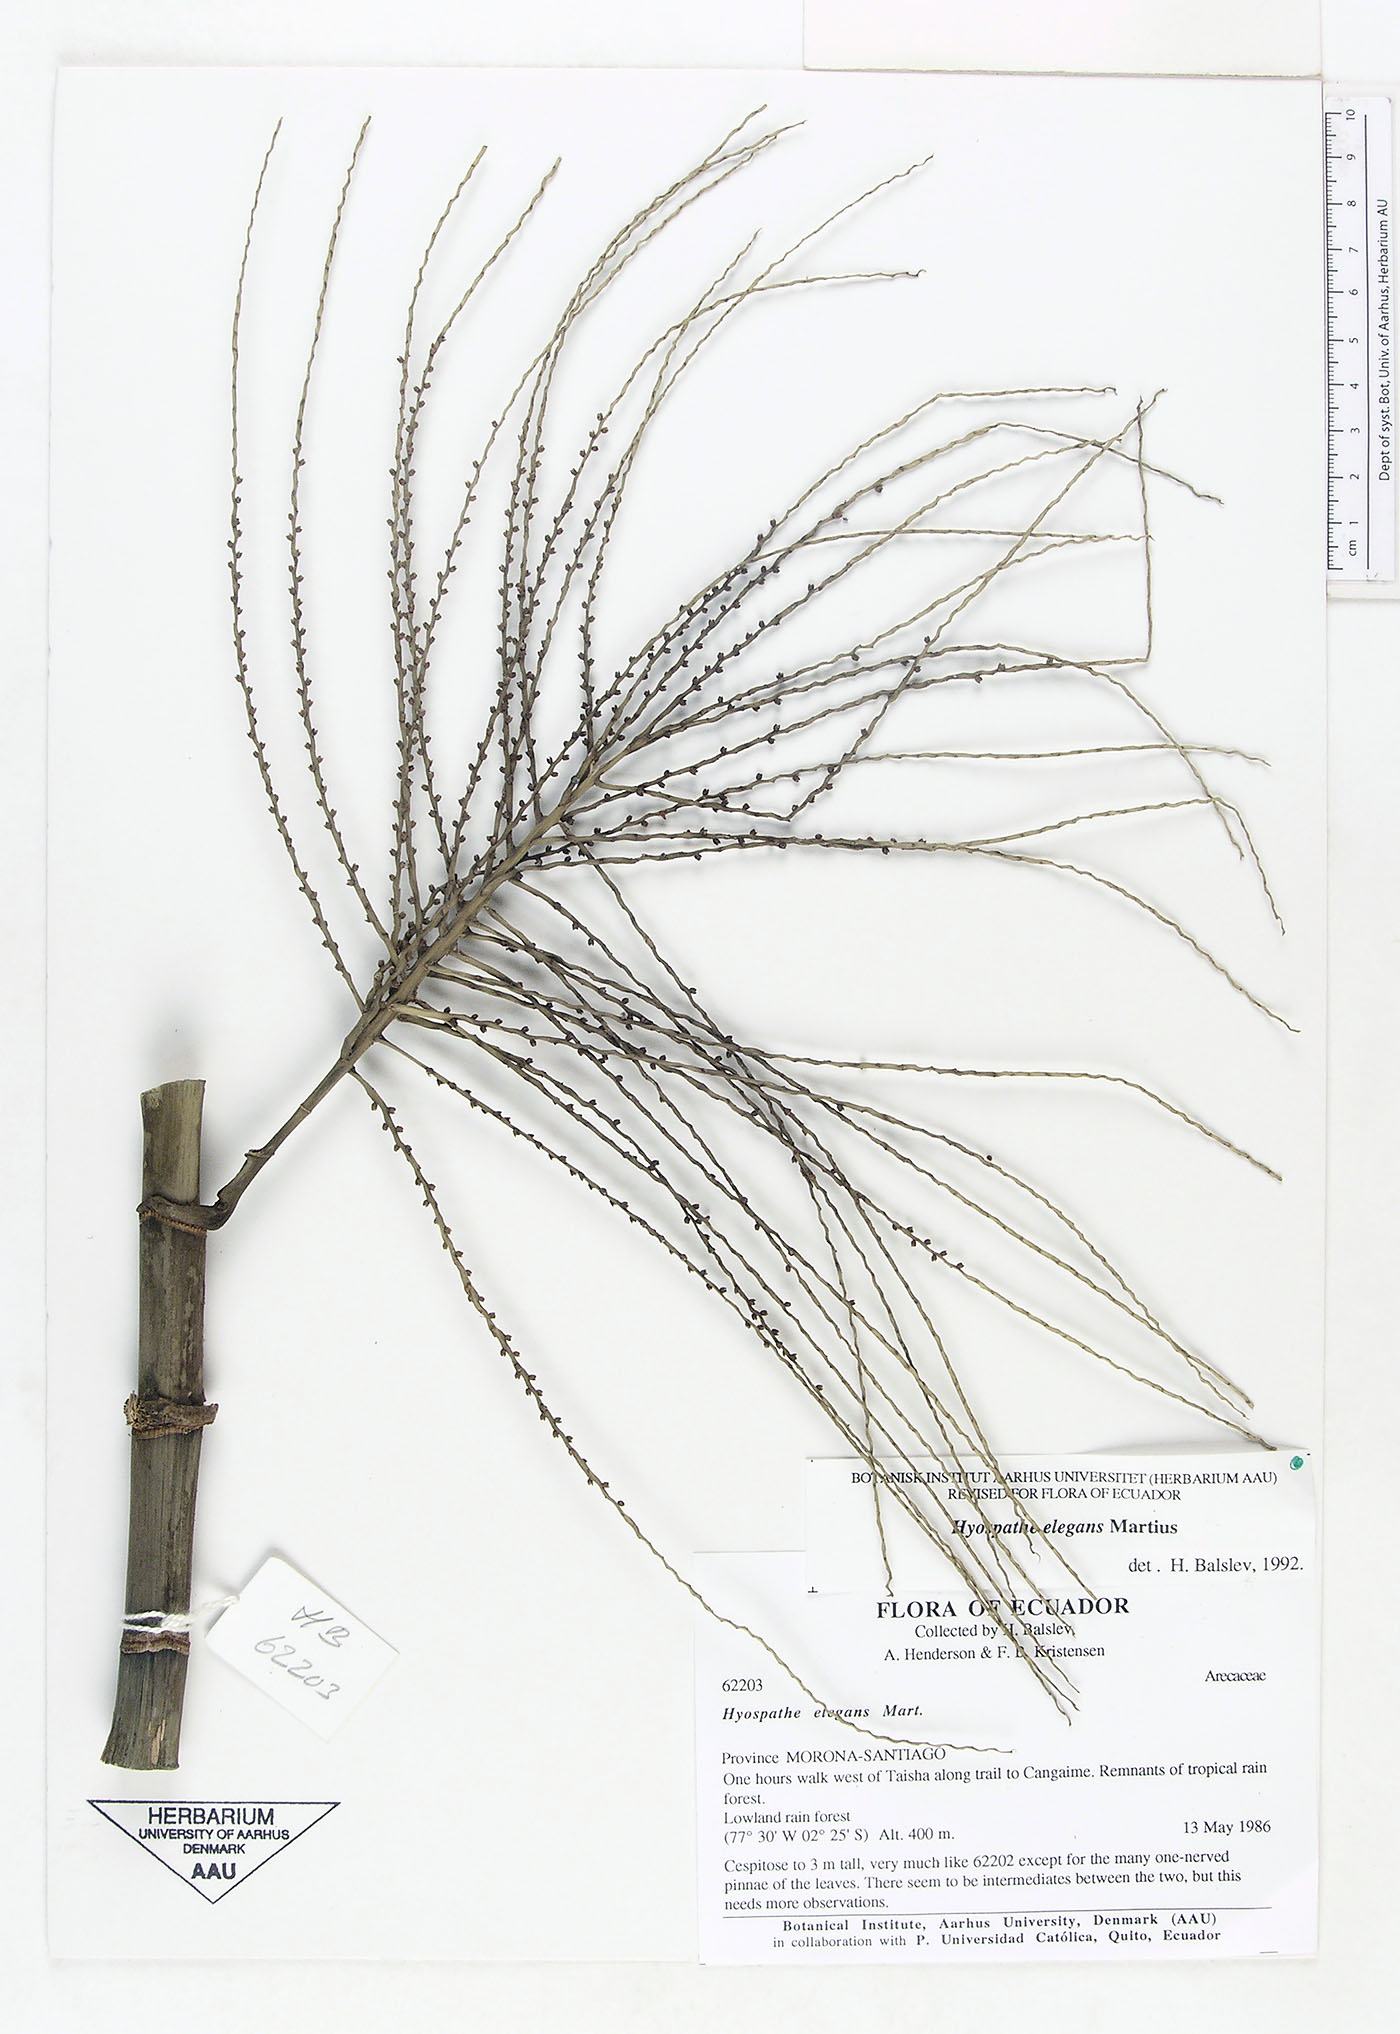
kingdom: Plantae
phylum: Tracheophyta
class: Liliopsida
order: Arecales
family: Arecaceae
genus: Hyospathe
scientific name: Hyospathe elegans
